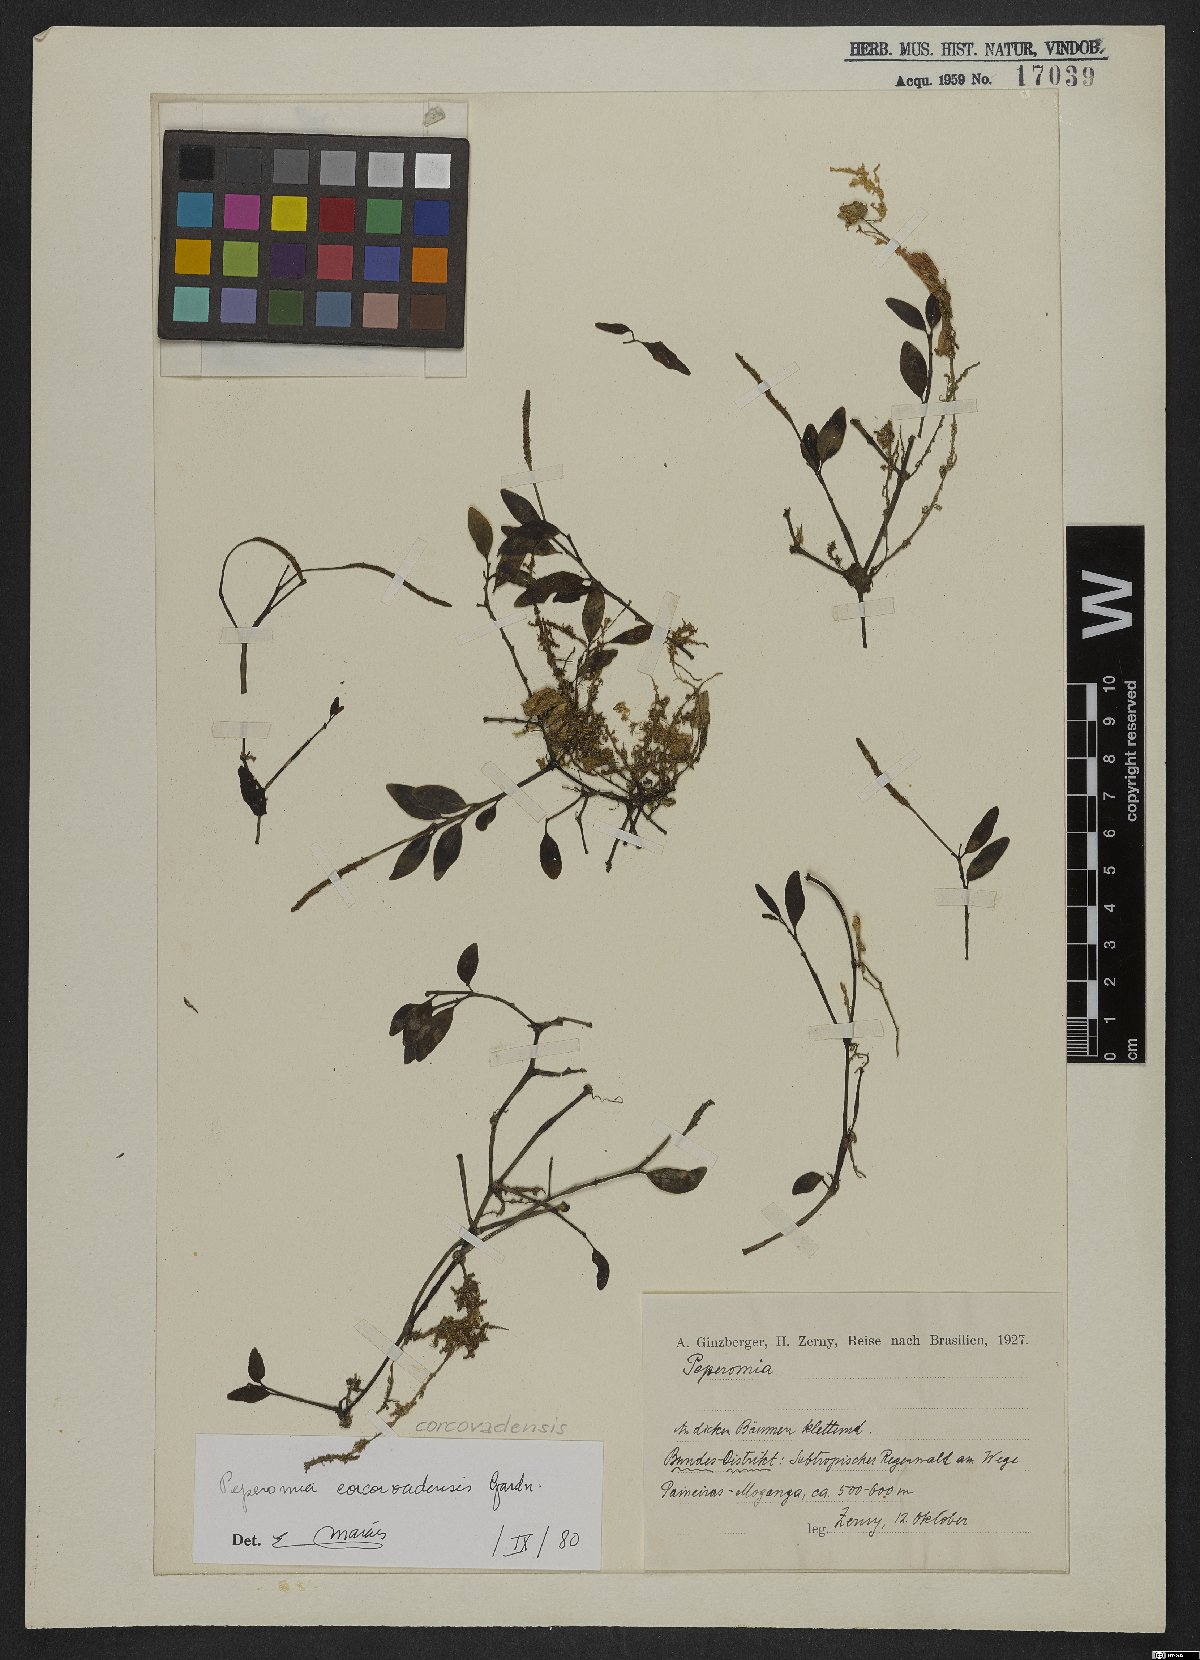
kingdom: Plantae
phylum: Tracheophyta
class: Magnoliopsida
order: Piperales
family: Piperaceae
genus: Peperomia
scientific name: Peperomia corcovadensis
